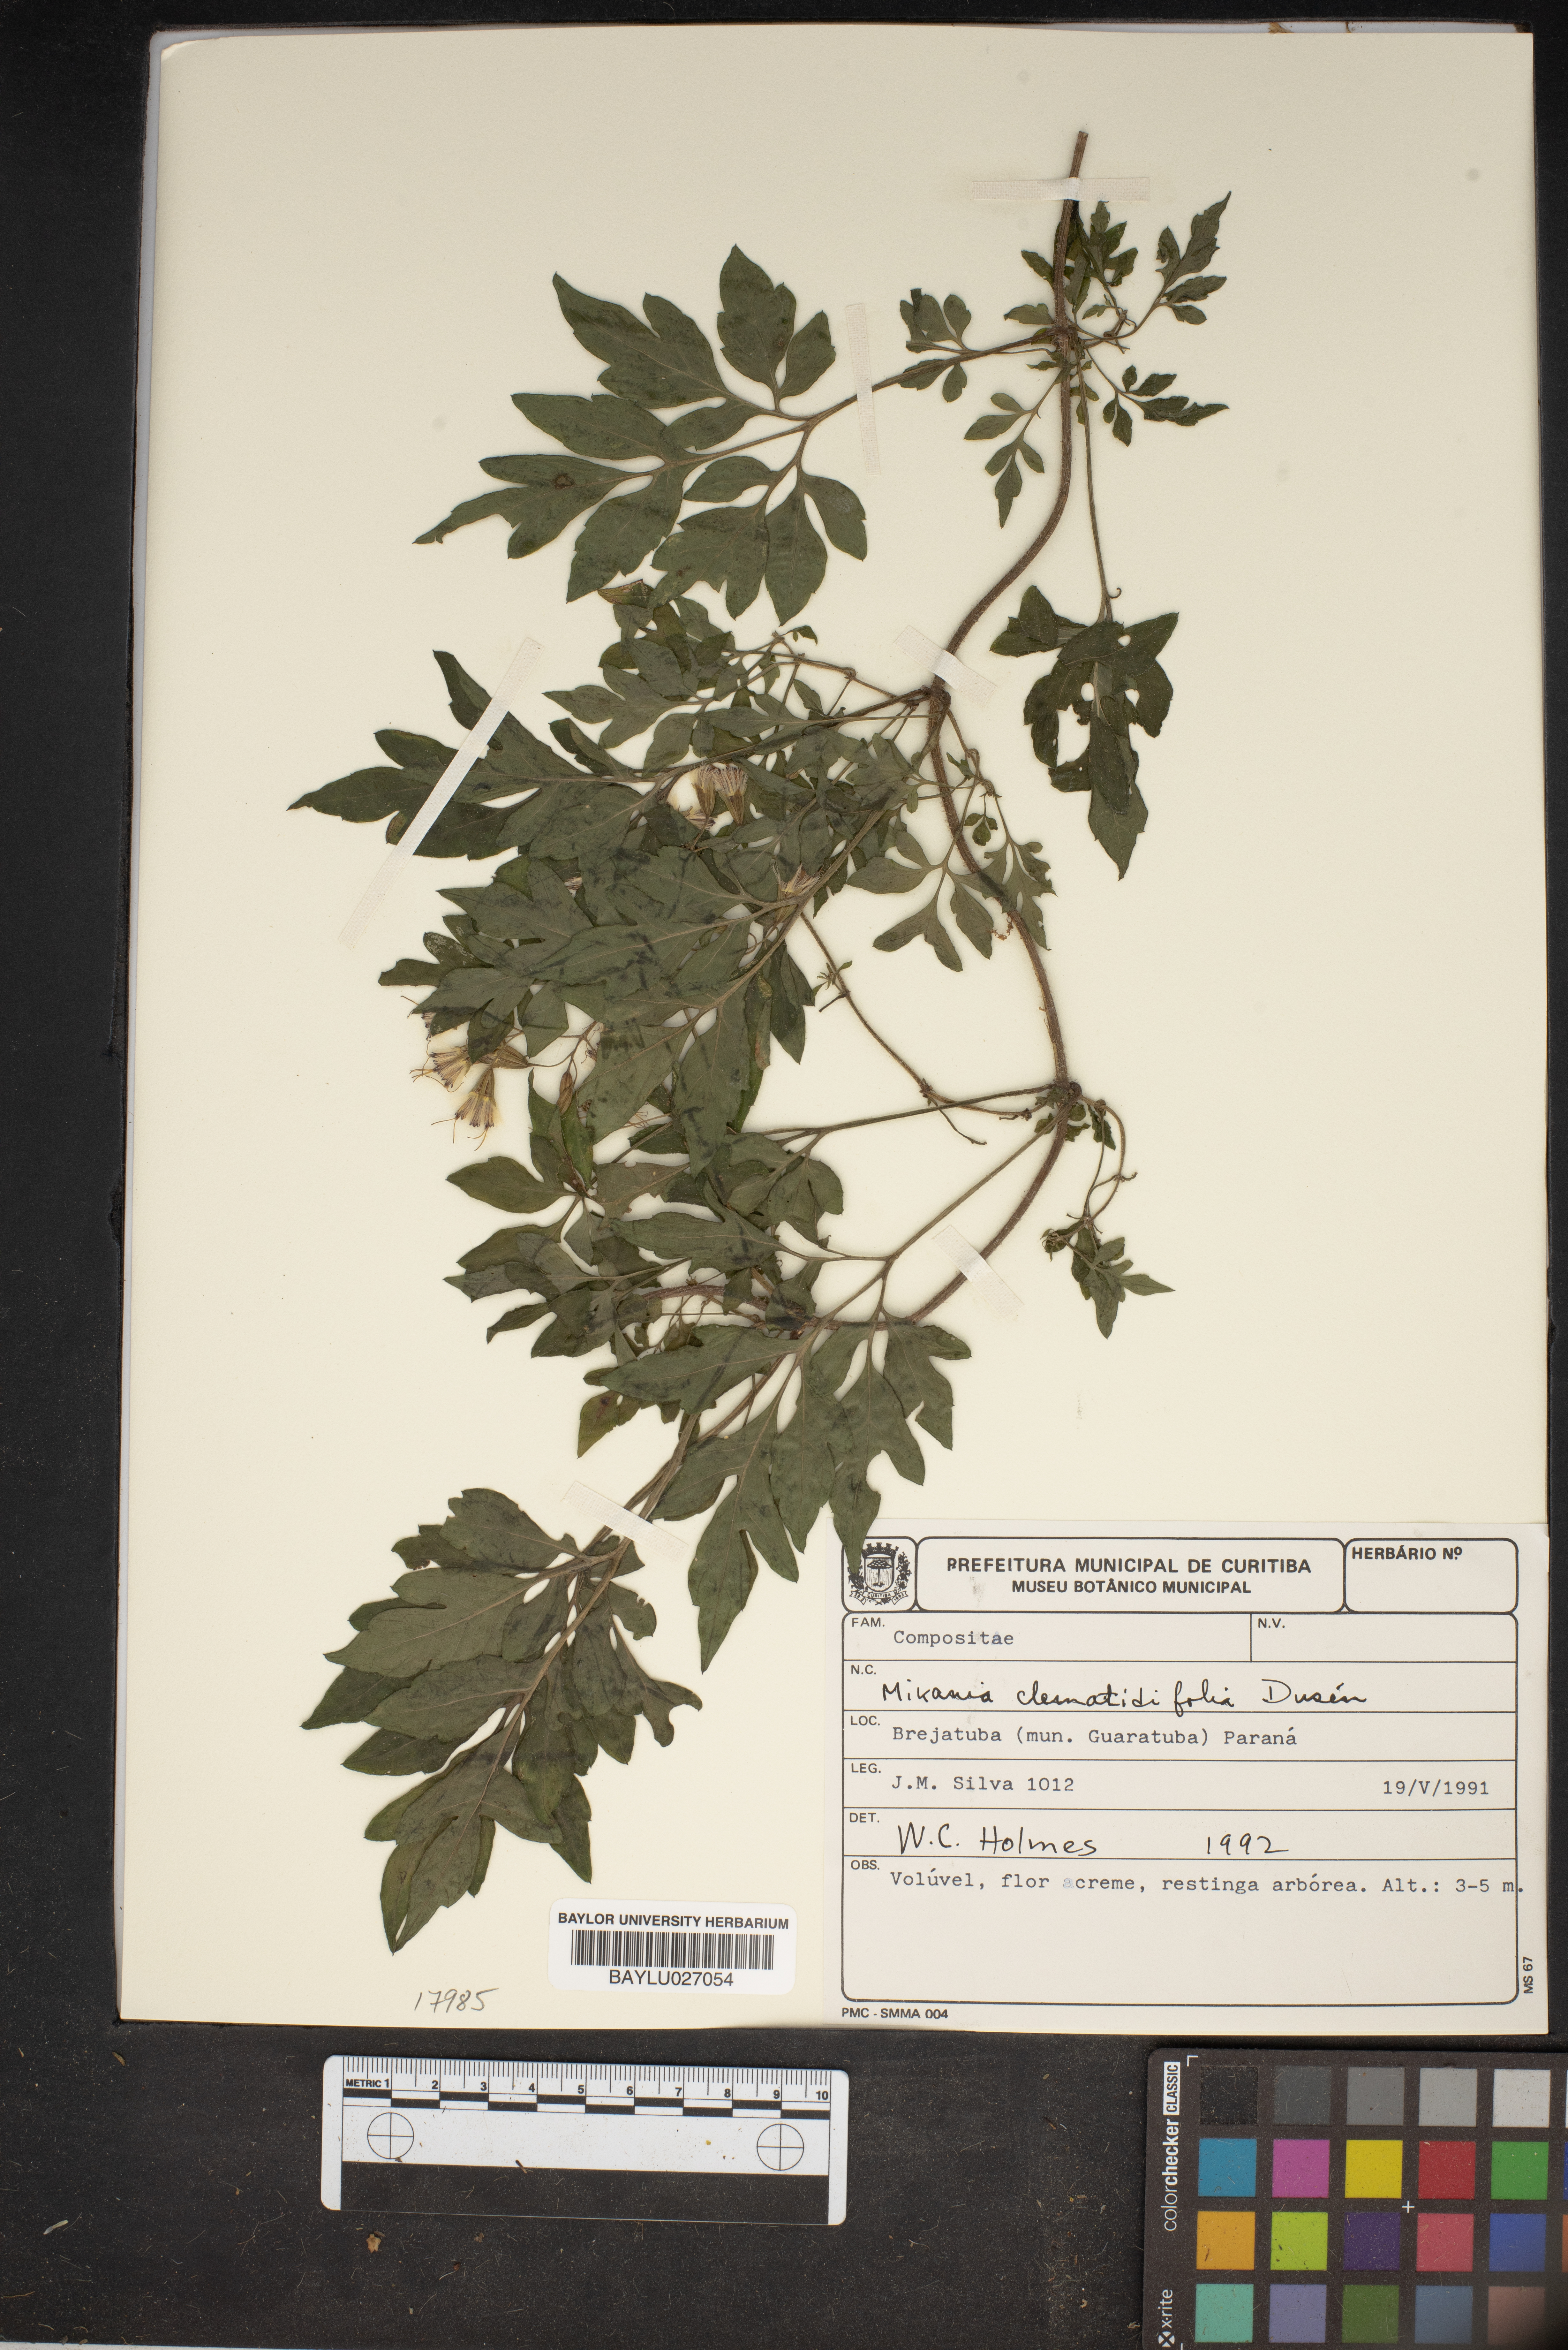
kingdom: Plantae
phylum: Tracheophyta
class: Magnoliopsida
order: Asterales
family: Asteraceae
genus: Mikania
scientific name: Mikania clematidiflora
